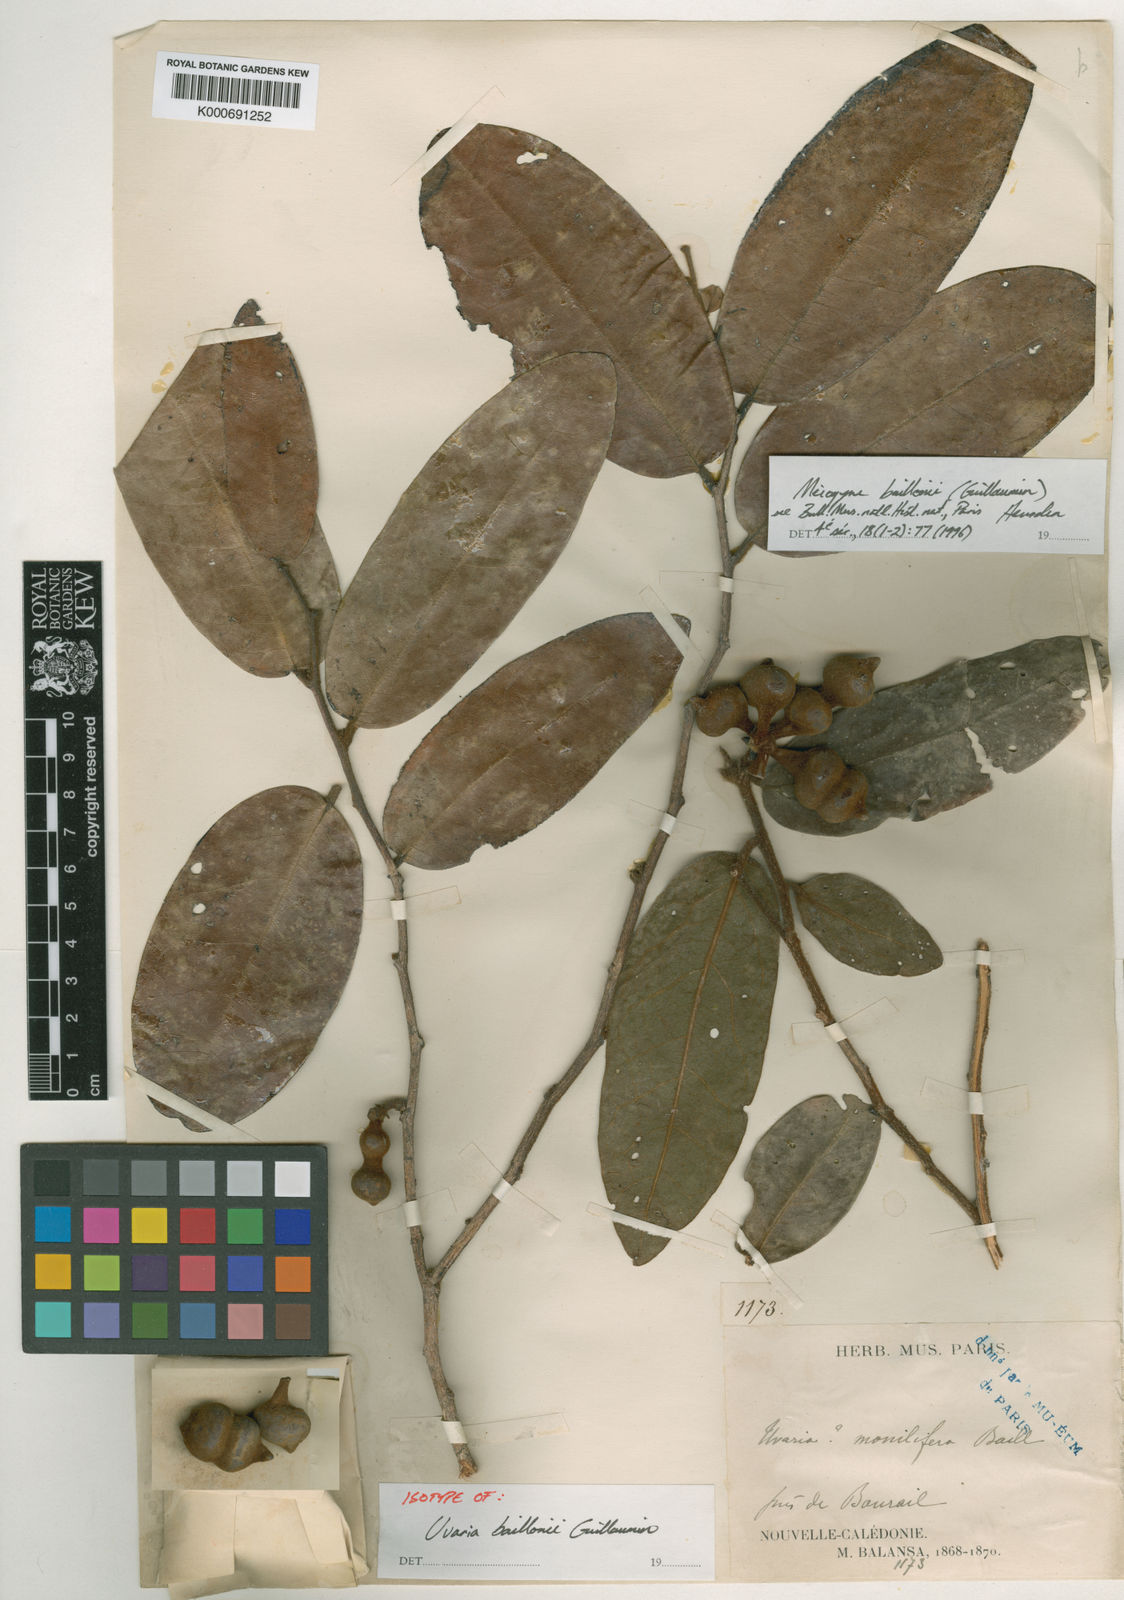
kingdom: Plantae
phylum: Tracheophyta
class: Magnoliopsida
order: Magnoliales
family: Annonaceae
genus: Meiogyne
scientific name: Meiogyne baillonii
